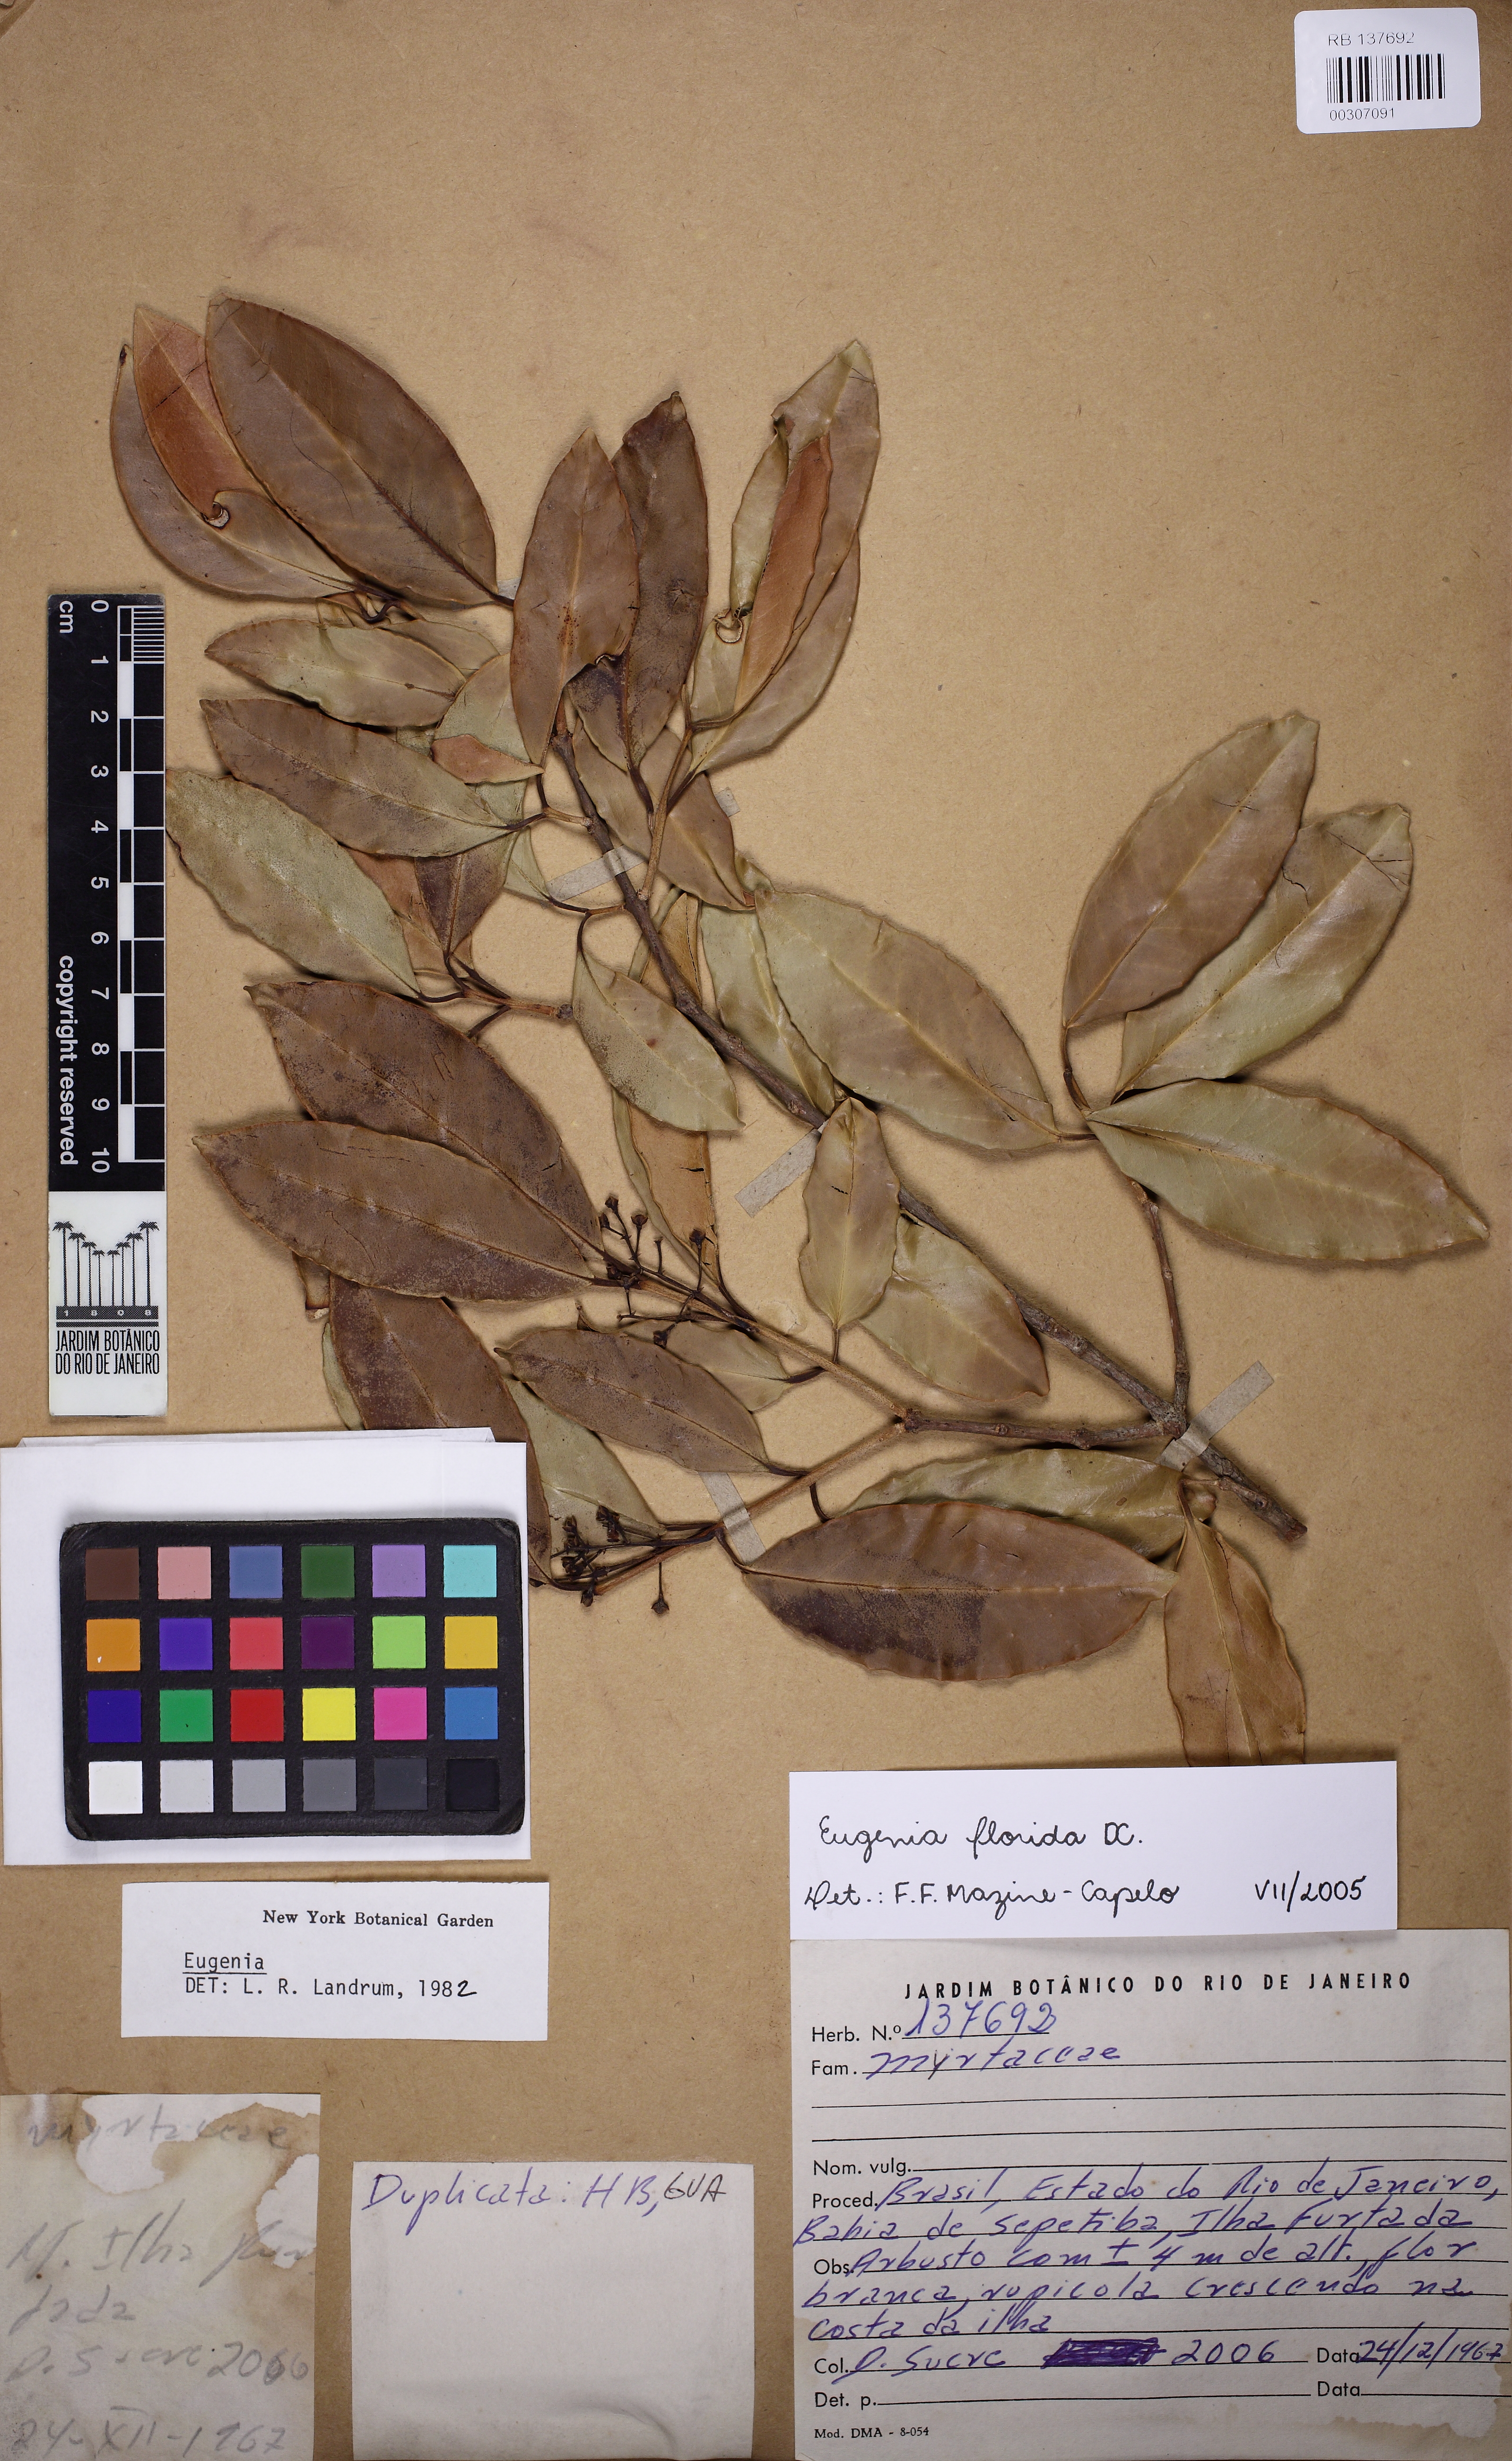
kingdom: Plantae
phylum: Tracheophyta
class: Magnoliopsida
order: Myrtales
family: Myrtaceae
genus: Eugenia
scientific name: Eugenia florida
